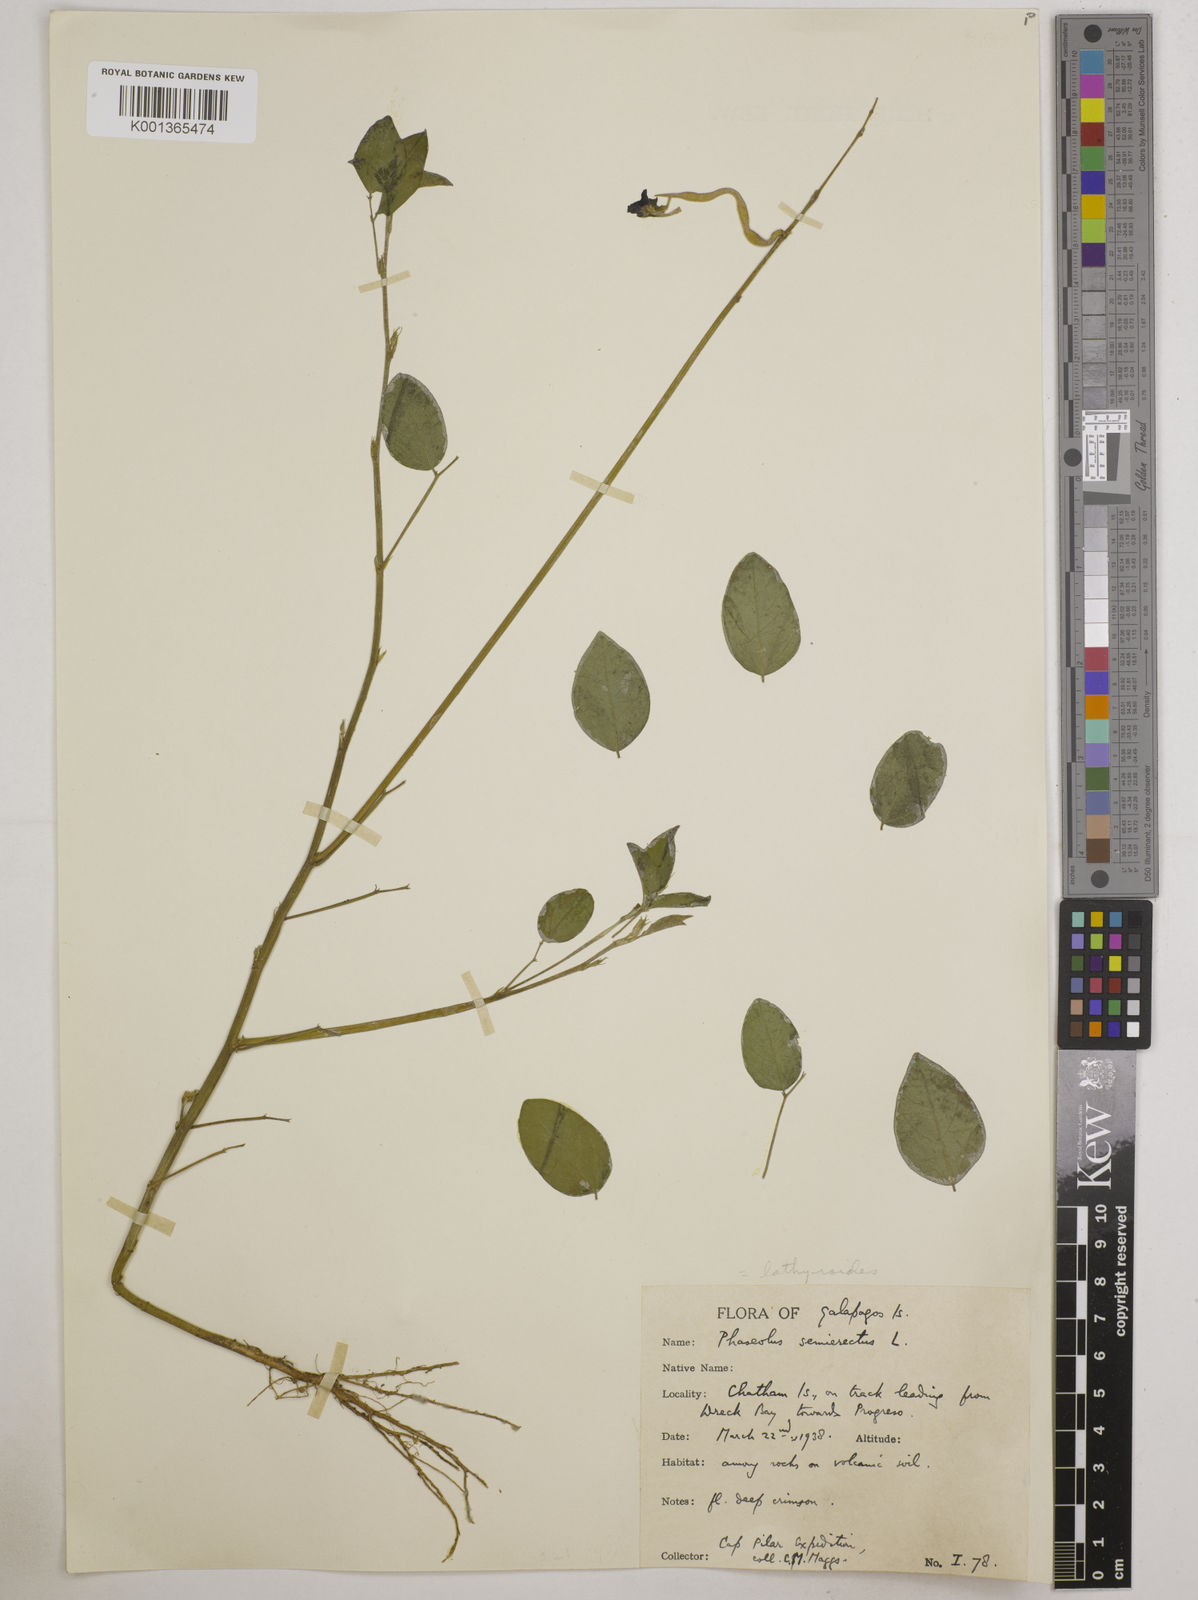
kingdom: Plantae
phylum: Tracheophyta
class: Magnoliopsida
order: Fabales
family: Fabaceae
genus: Macroptilium
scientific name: Macroptilium lathyroides
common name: Wild bushbean
